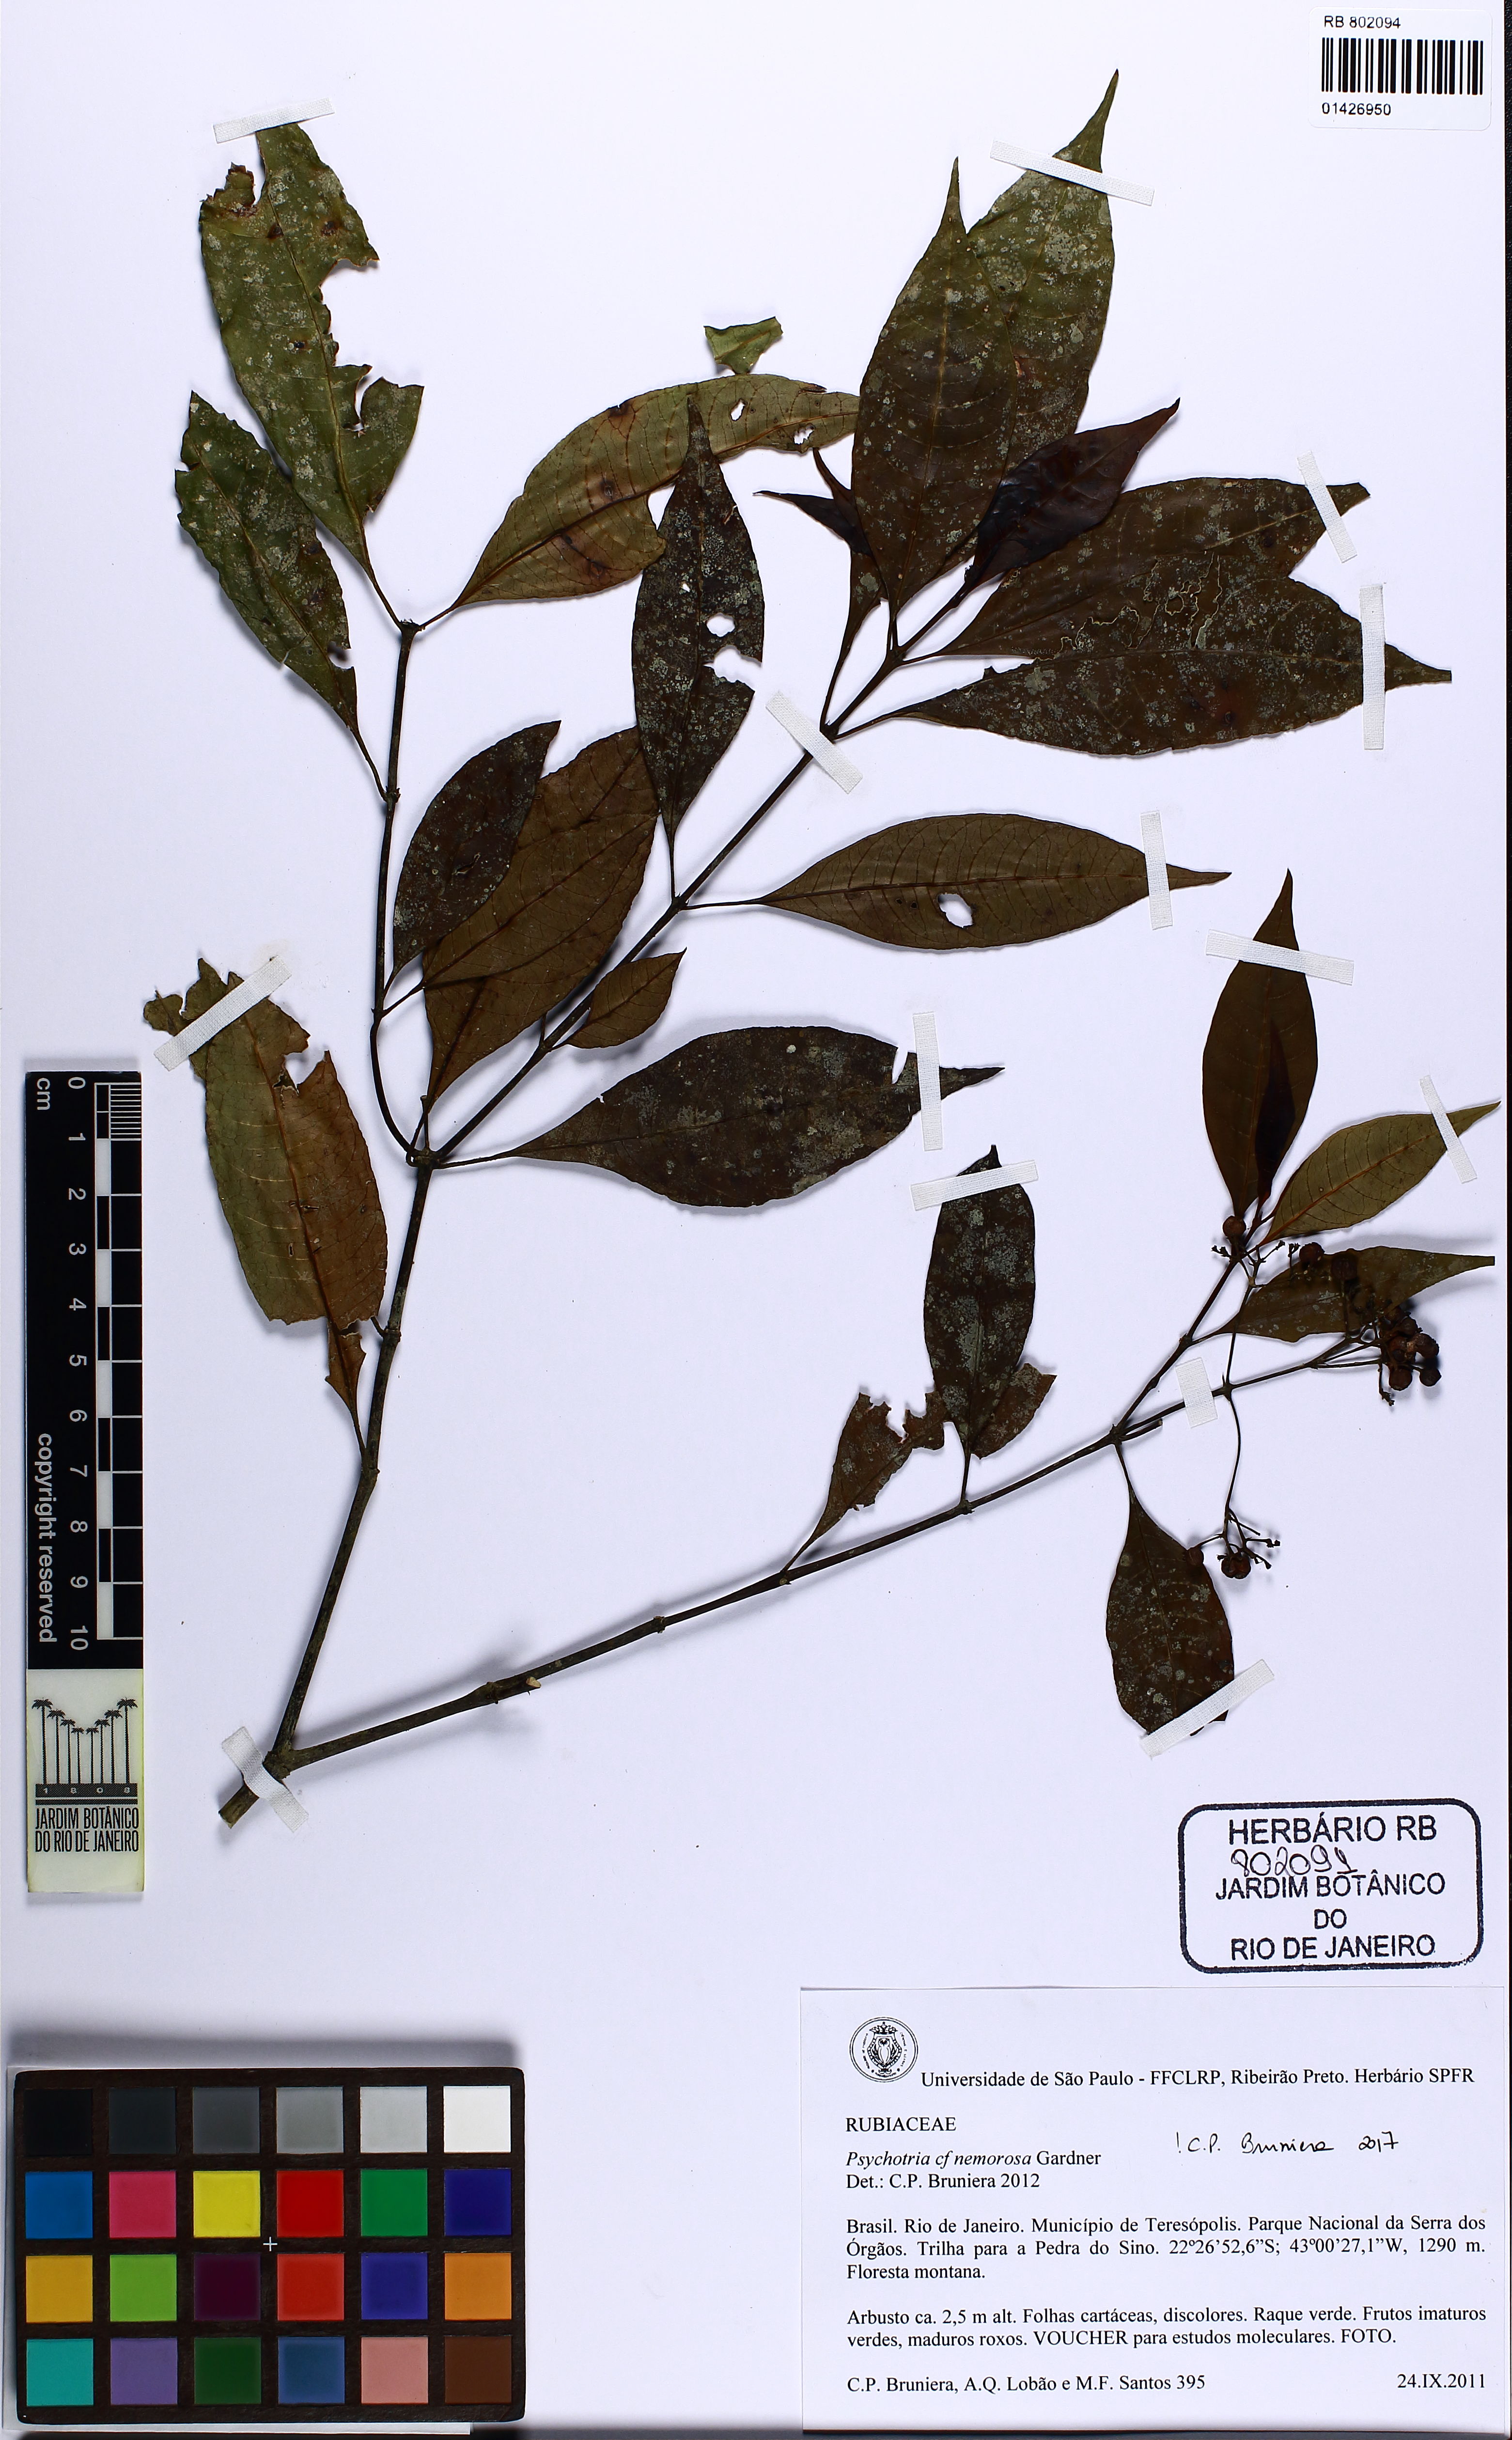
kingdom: Plantae
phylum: Tracheophyta
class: Magnoliopsida
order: Gentianales
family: Rubiaceae
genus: Psychotria
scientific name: Psychotria nemorosa
